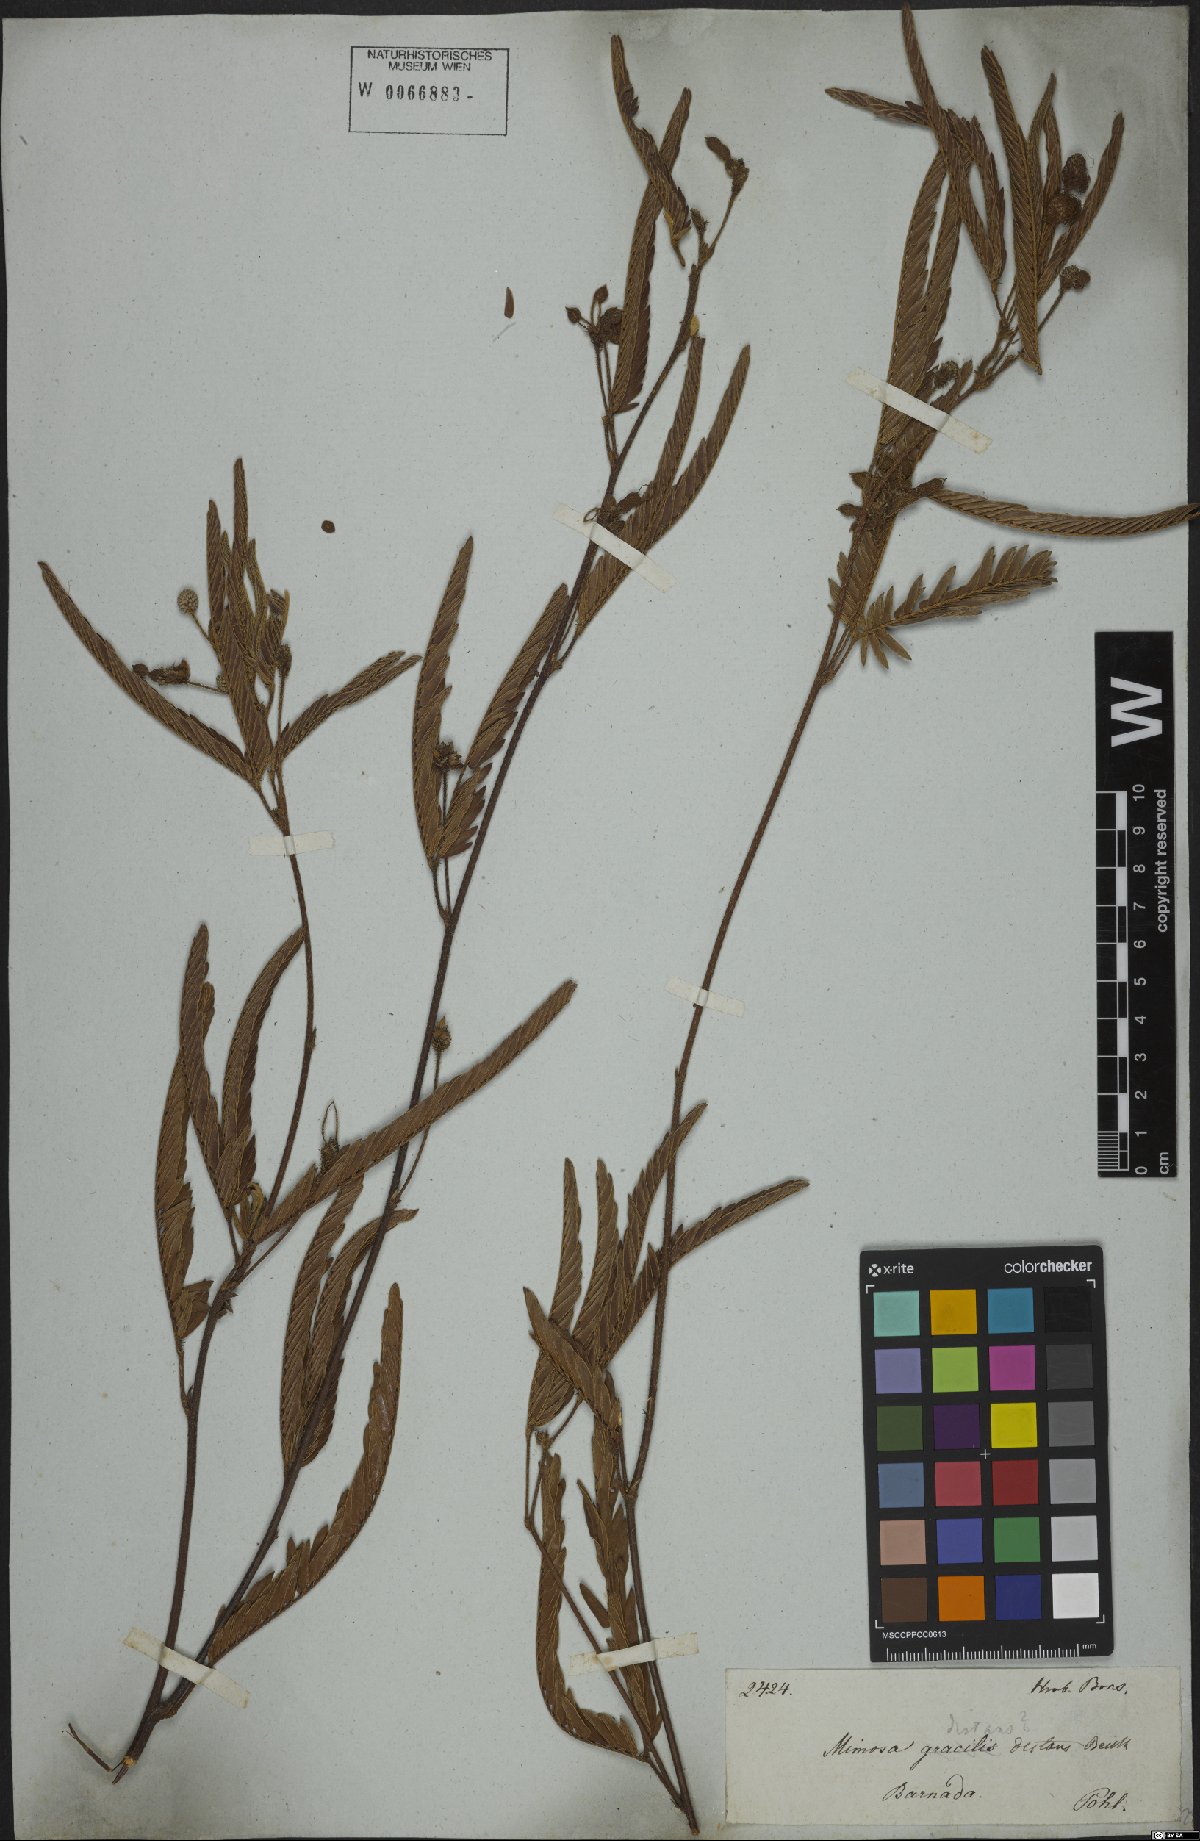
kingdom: Plantae
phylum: Tracheophyta
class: Magnoliopsida
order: Fabales
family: Fabaceae
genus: Mimosa
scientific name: Mimosa distans
